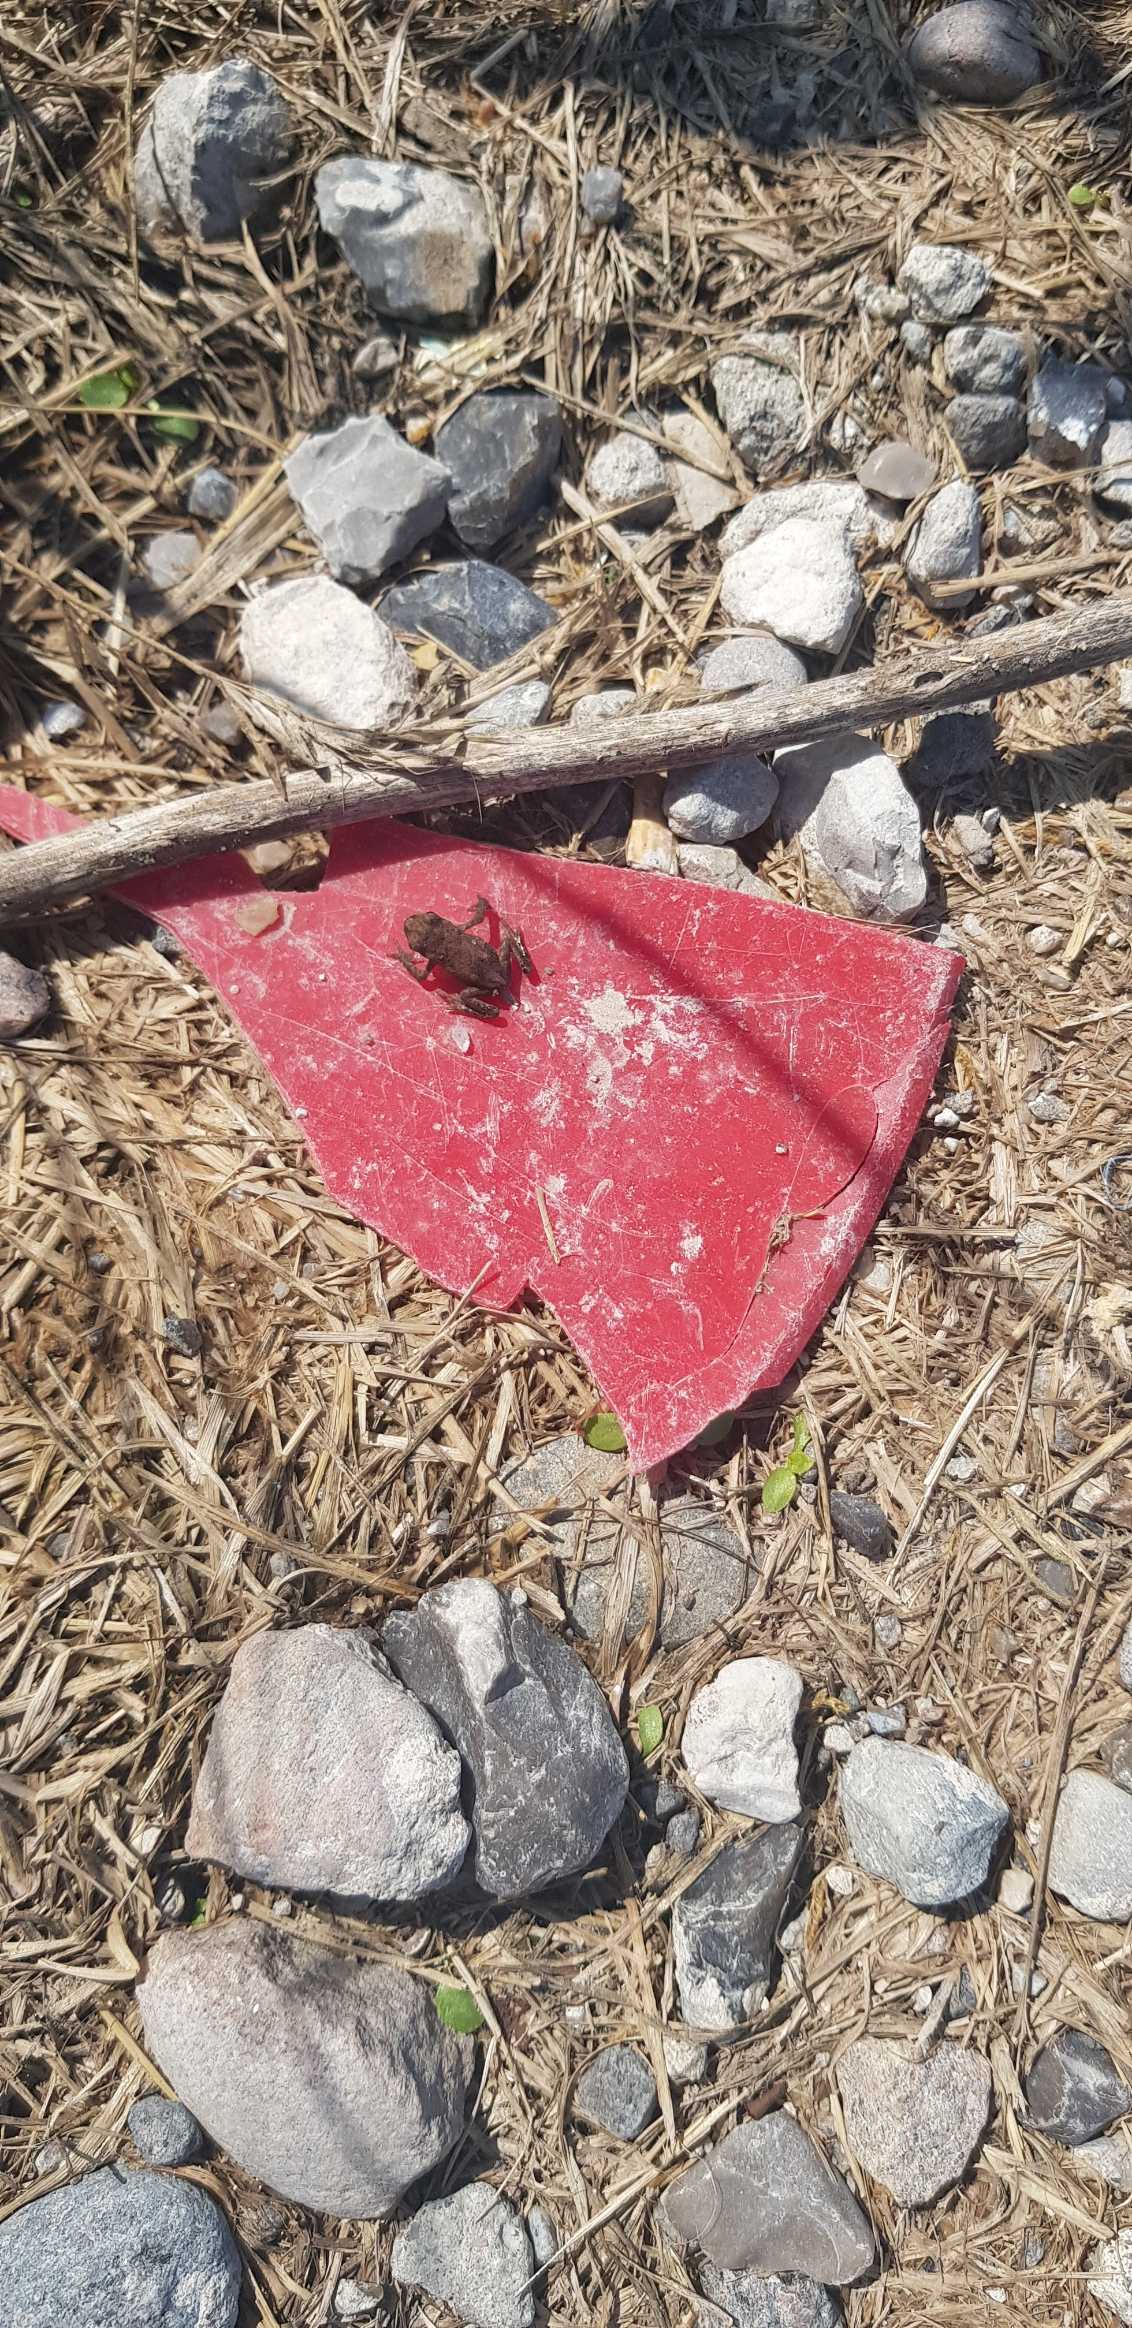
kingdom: Animalia
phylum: Chordata
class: Amphibia
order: Anura
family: Bufonidae
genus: Bufo
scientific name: Bufo bufo
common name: Skrubtudse
